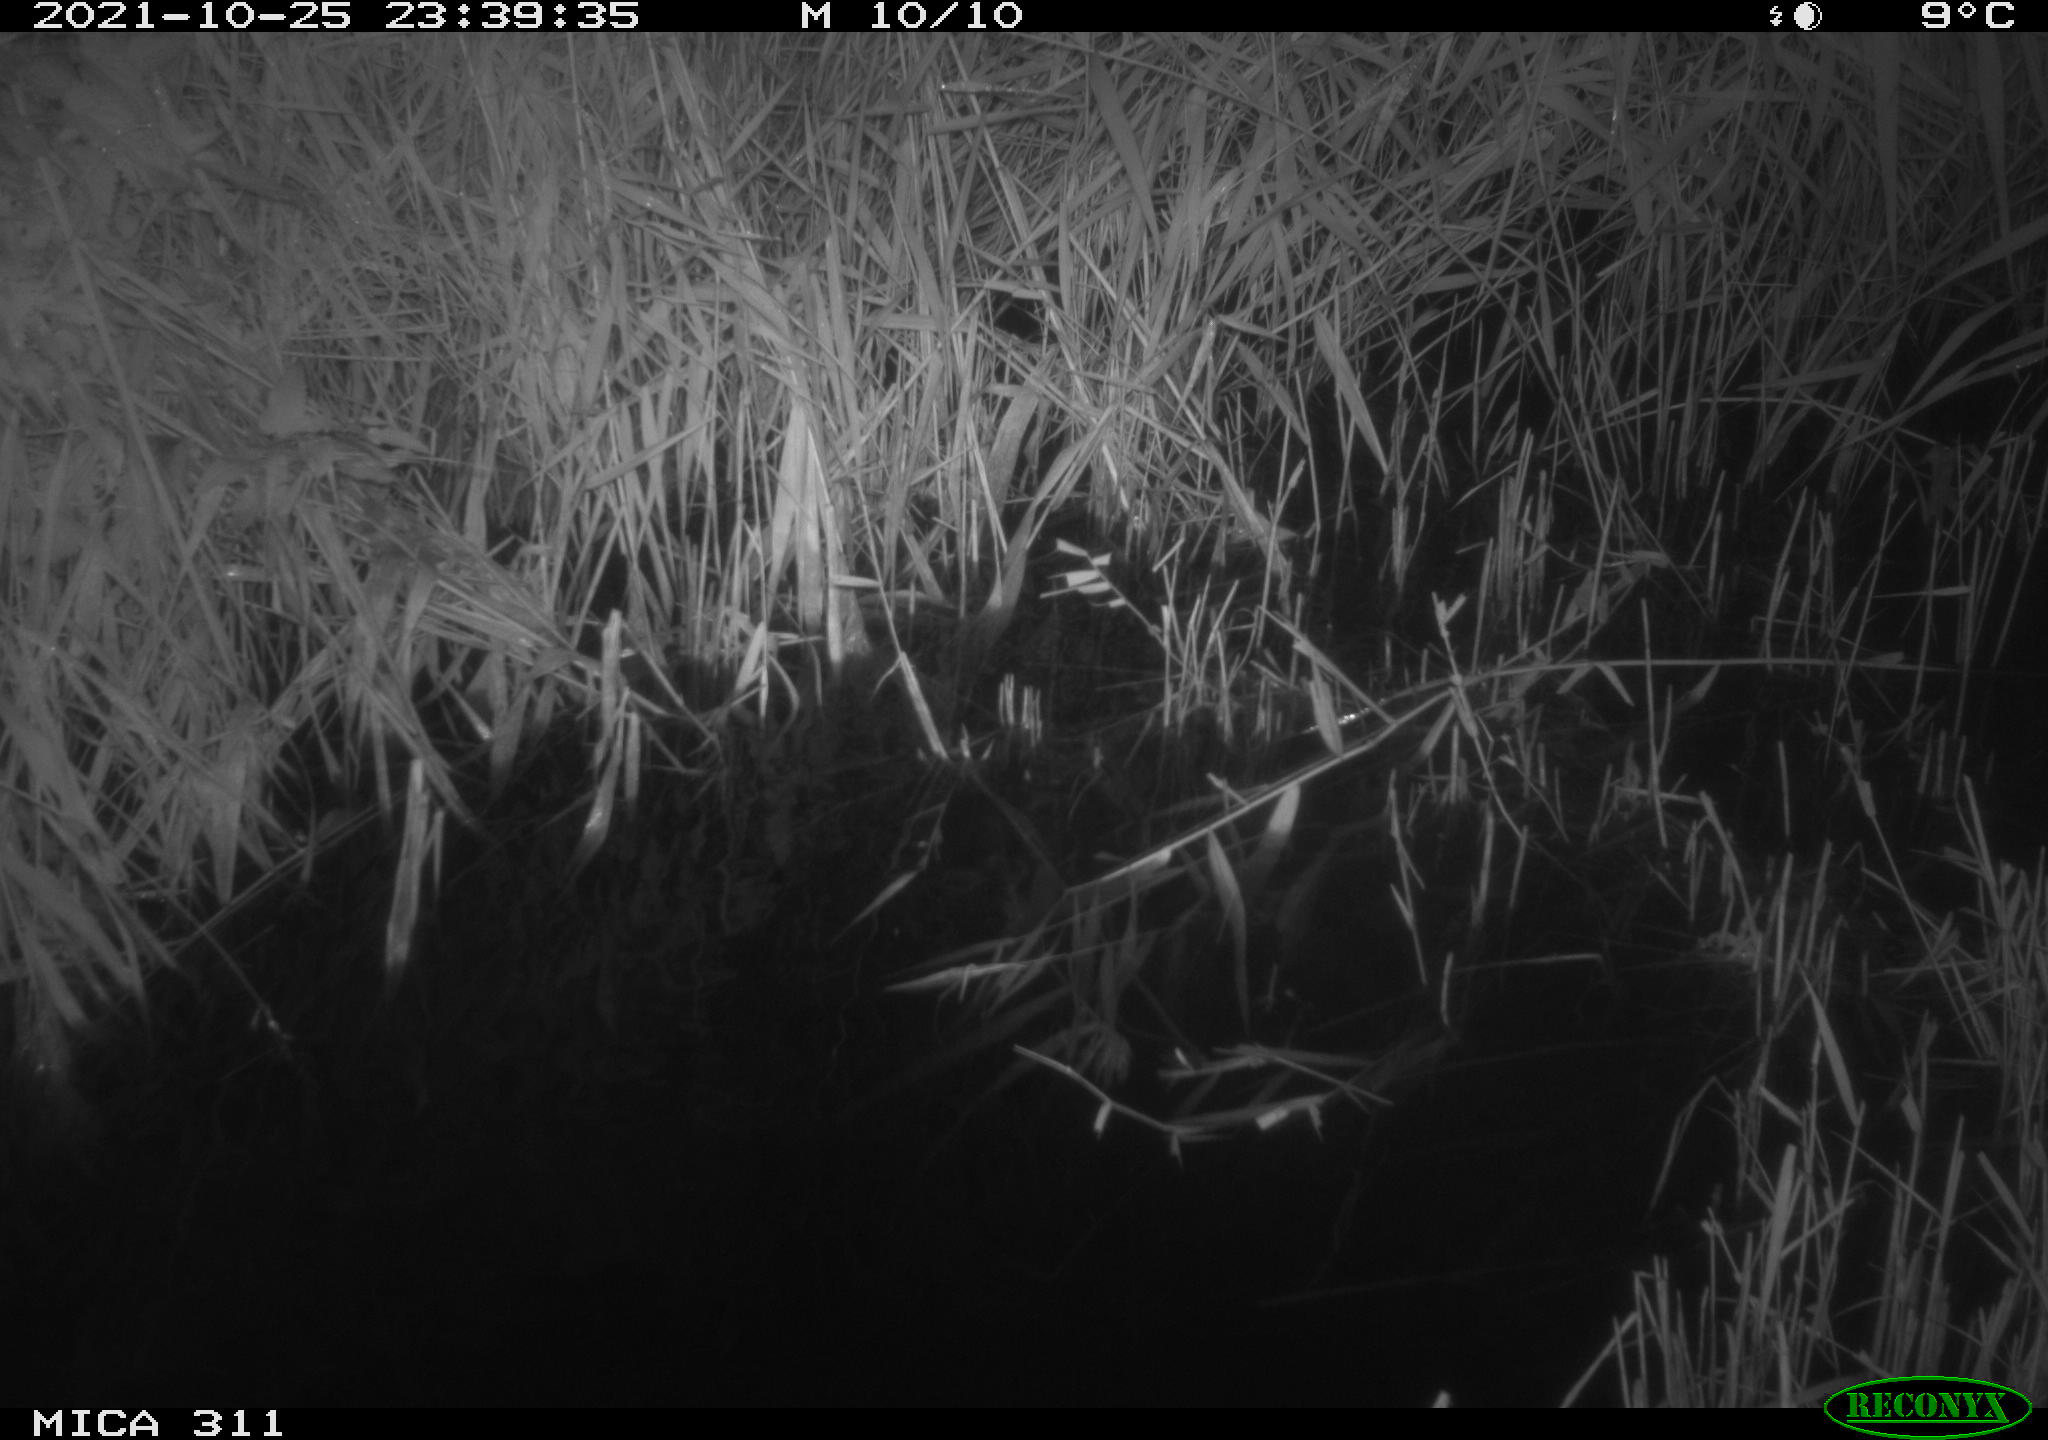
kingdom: Animalia
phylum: Chordata
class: Mammalia
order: Rodentia
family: Muridae
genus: Rattus
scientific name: Rattus norvegicus
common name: Brown rat
